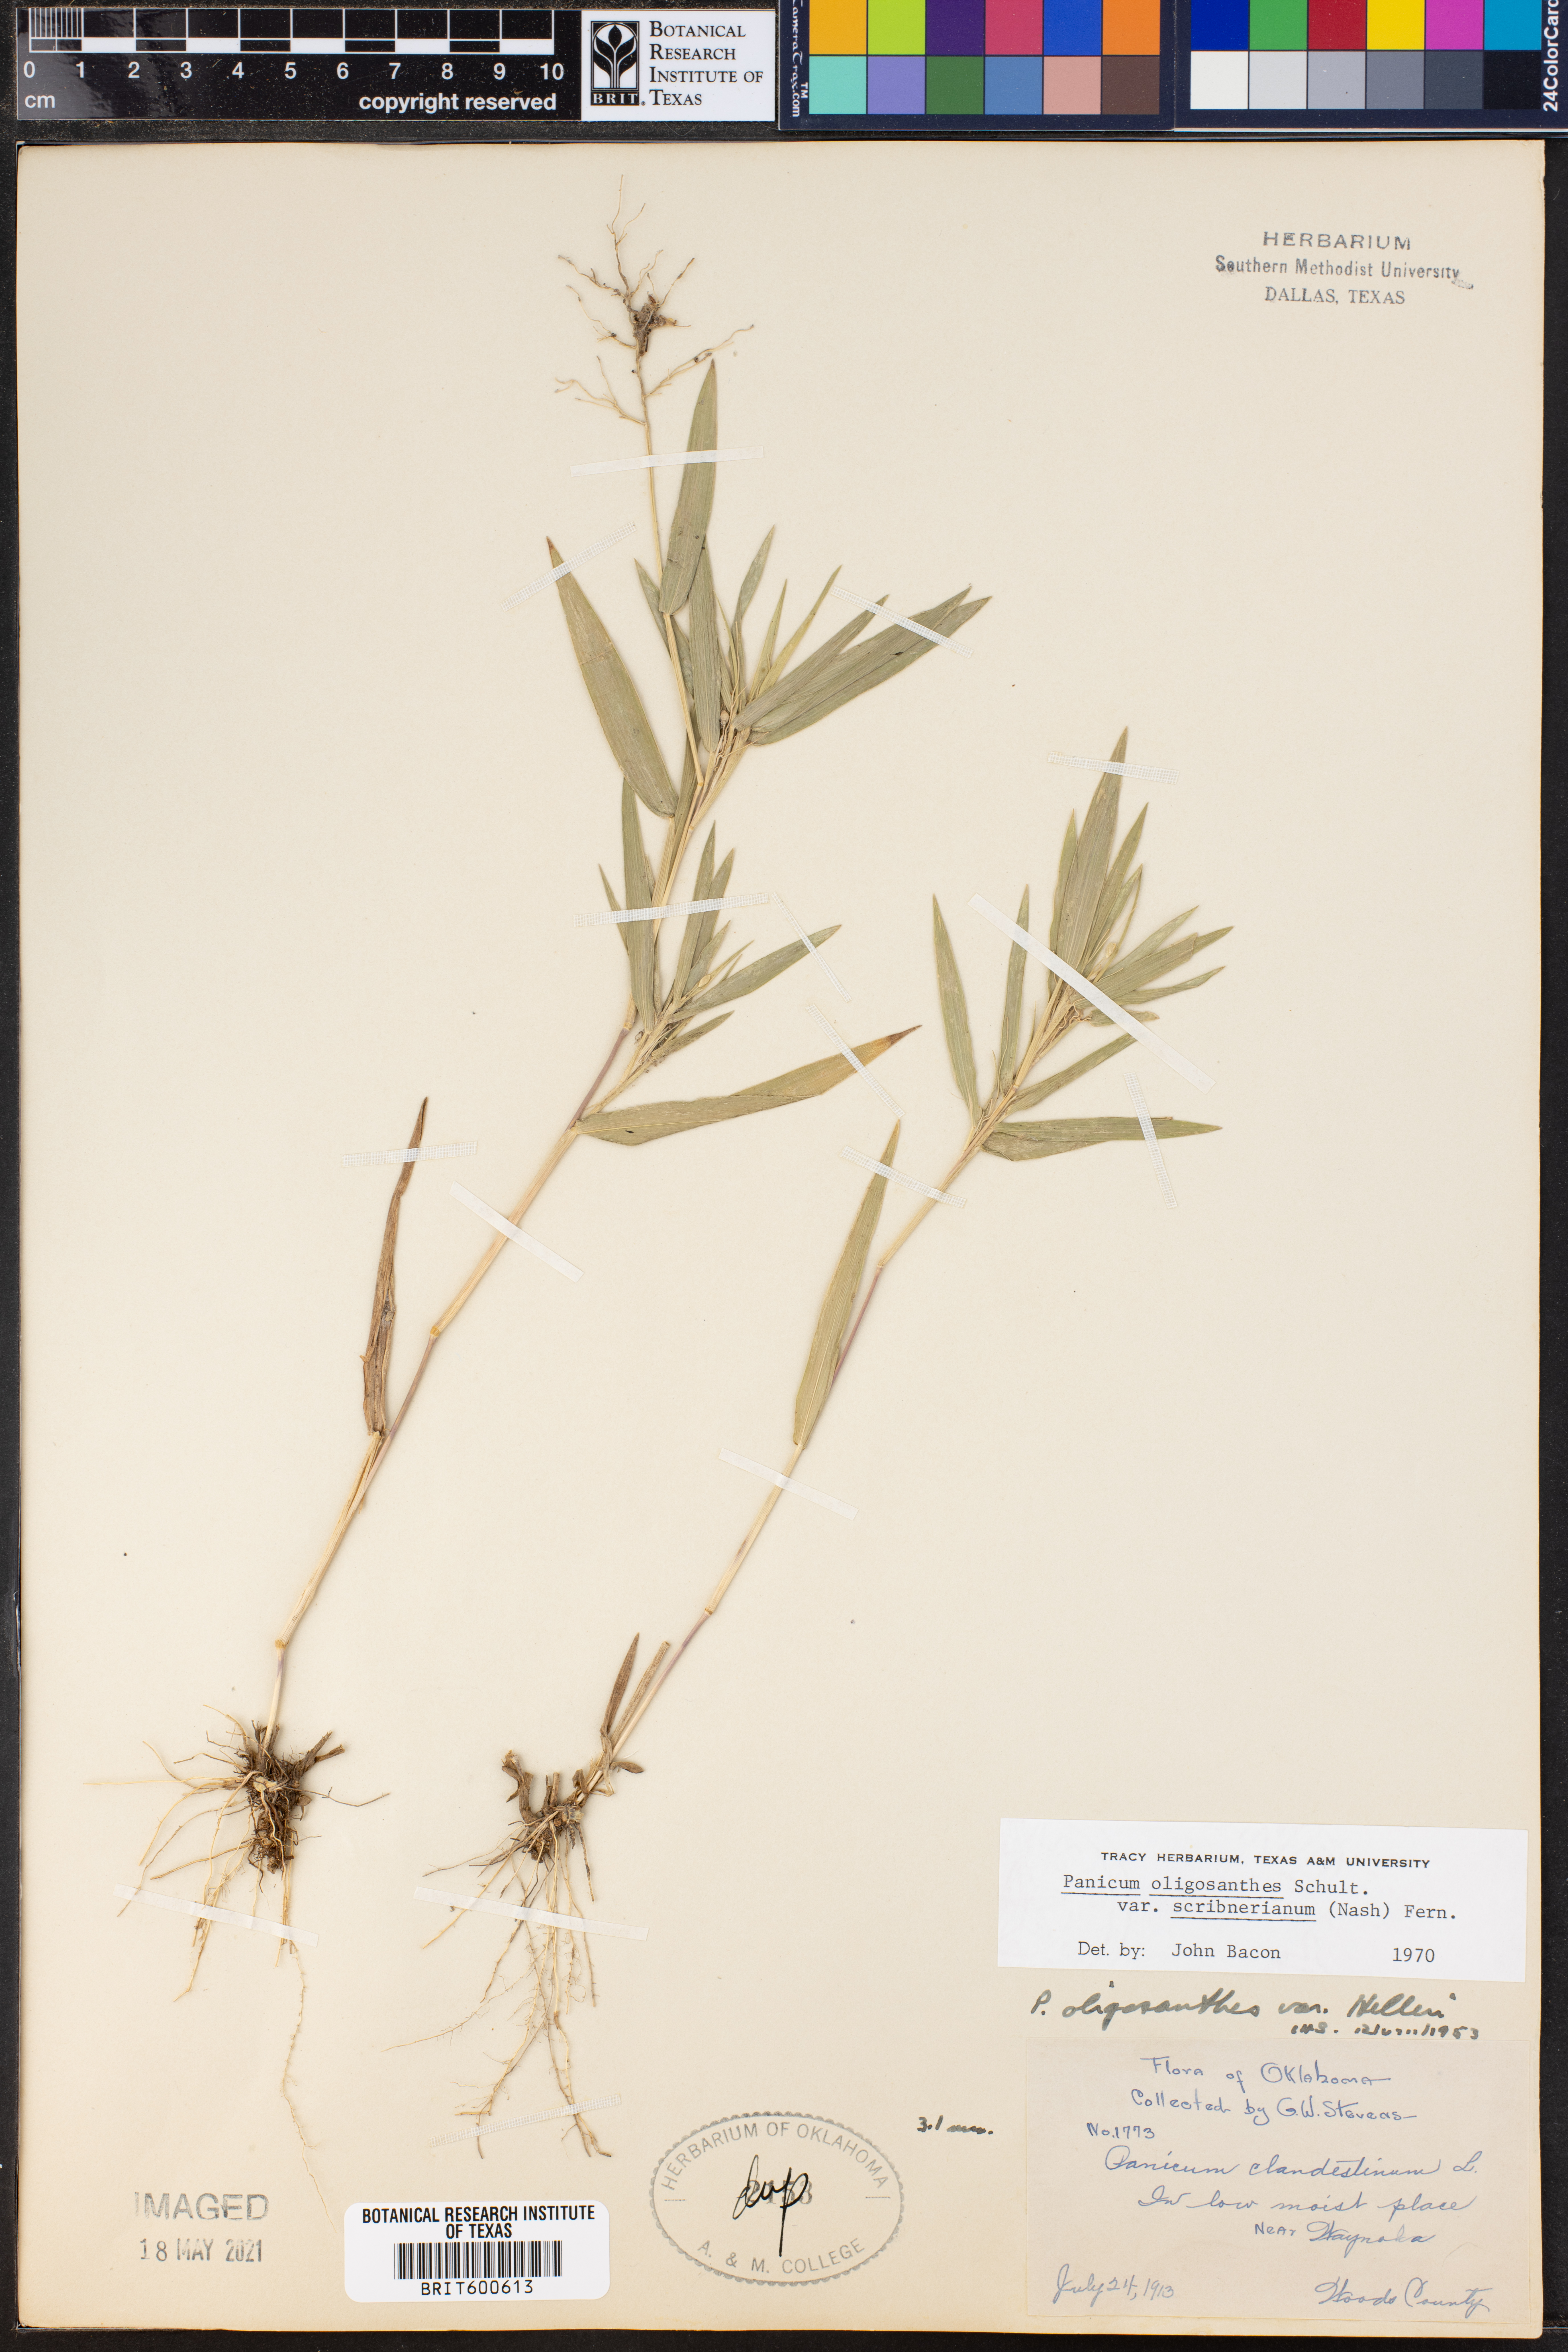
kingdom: Plantae
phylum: Tracheophyta
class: Liliopsida
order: Poales
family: Poaceae
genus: Dichanthelium
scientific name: Dichanthelium scribnerianum
